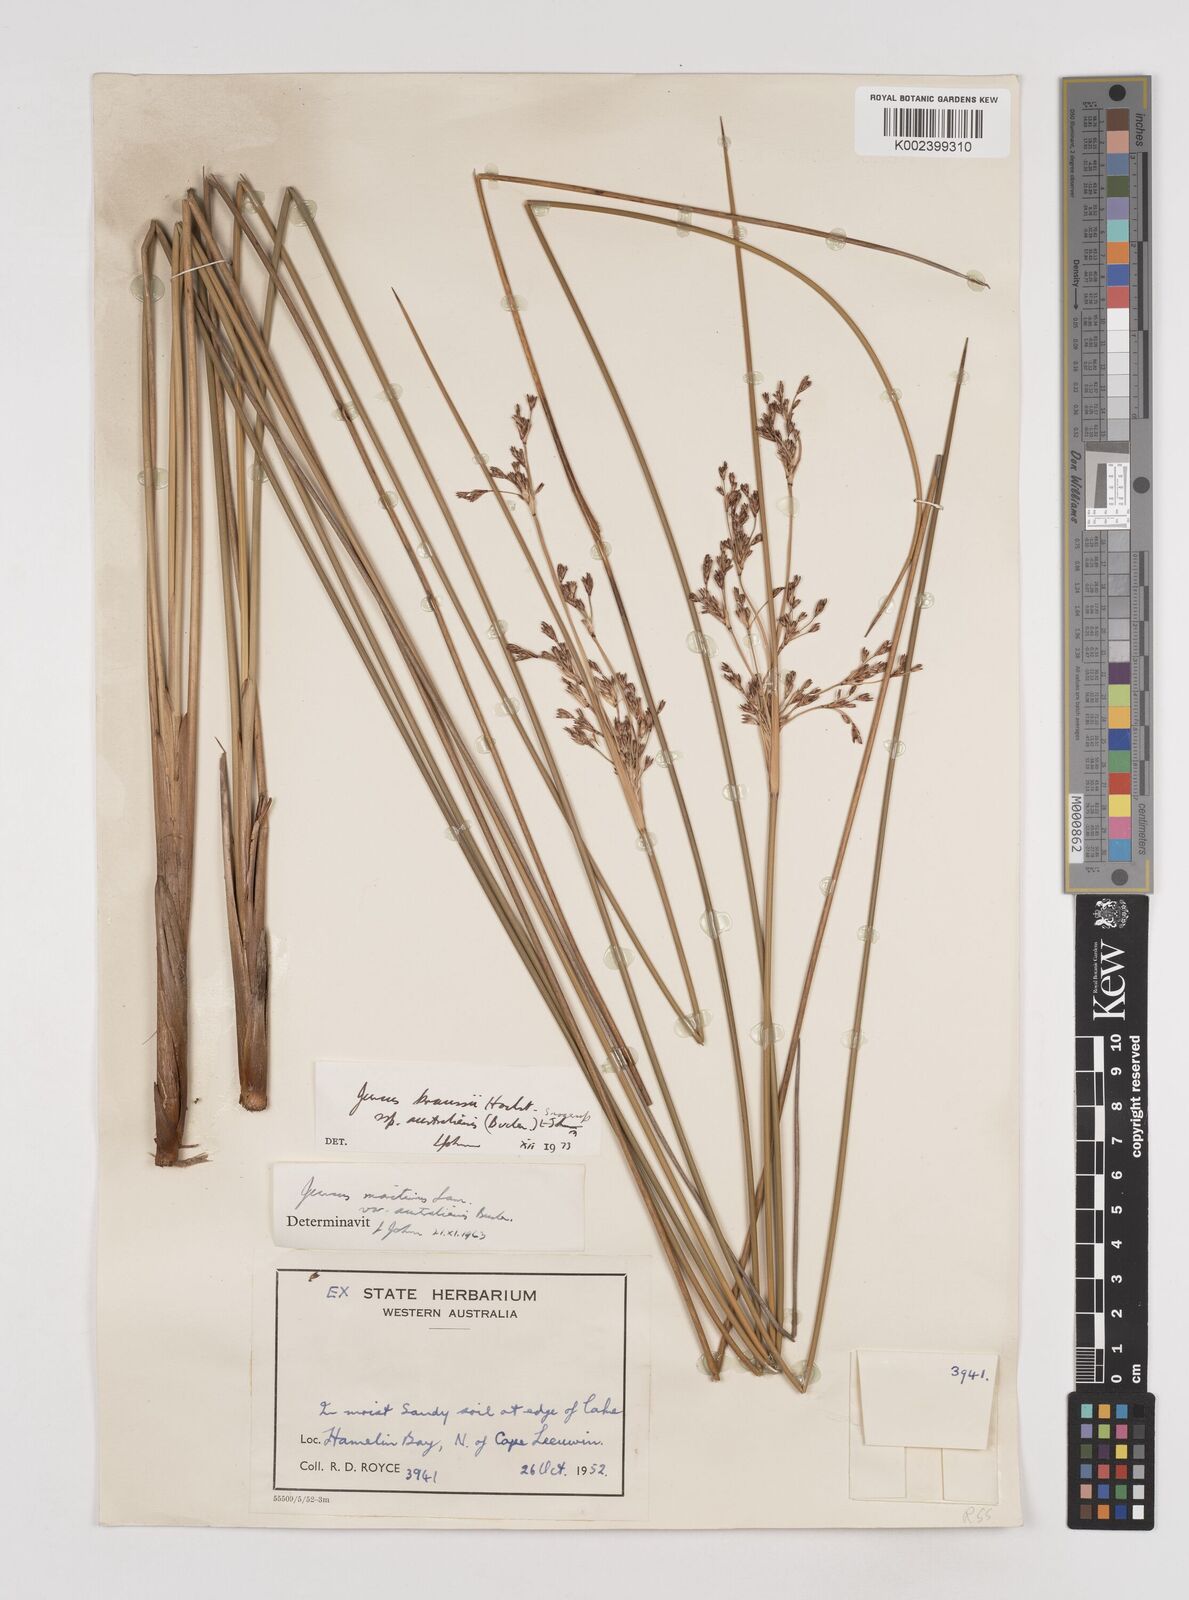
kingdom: Plantae
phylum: Tracheophyta
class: Liliopsida
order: Poales
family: Juncaceae
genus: Juncus
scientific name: Juncus kraussii
